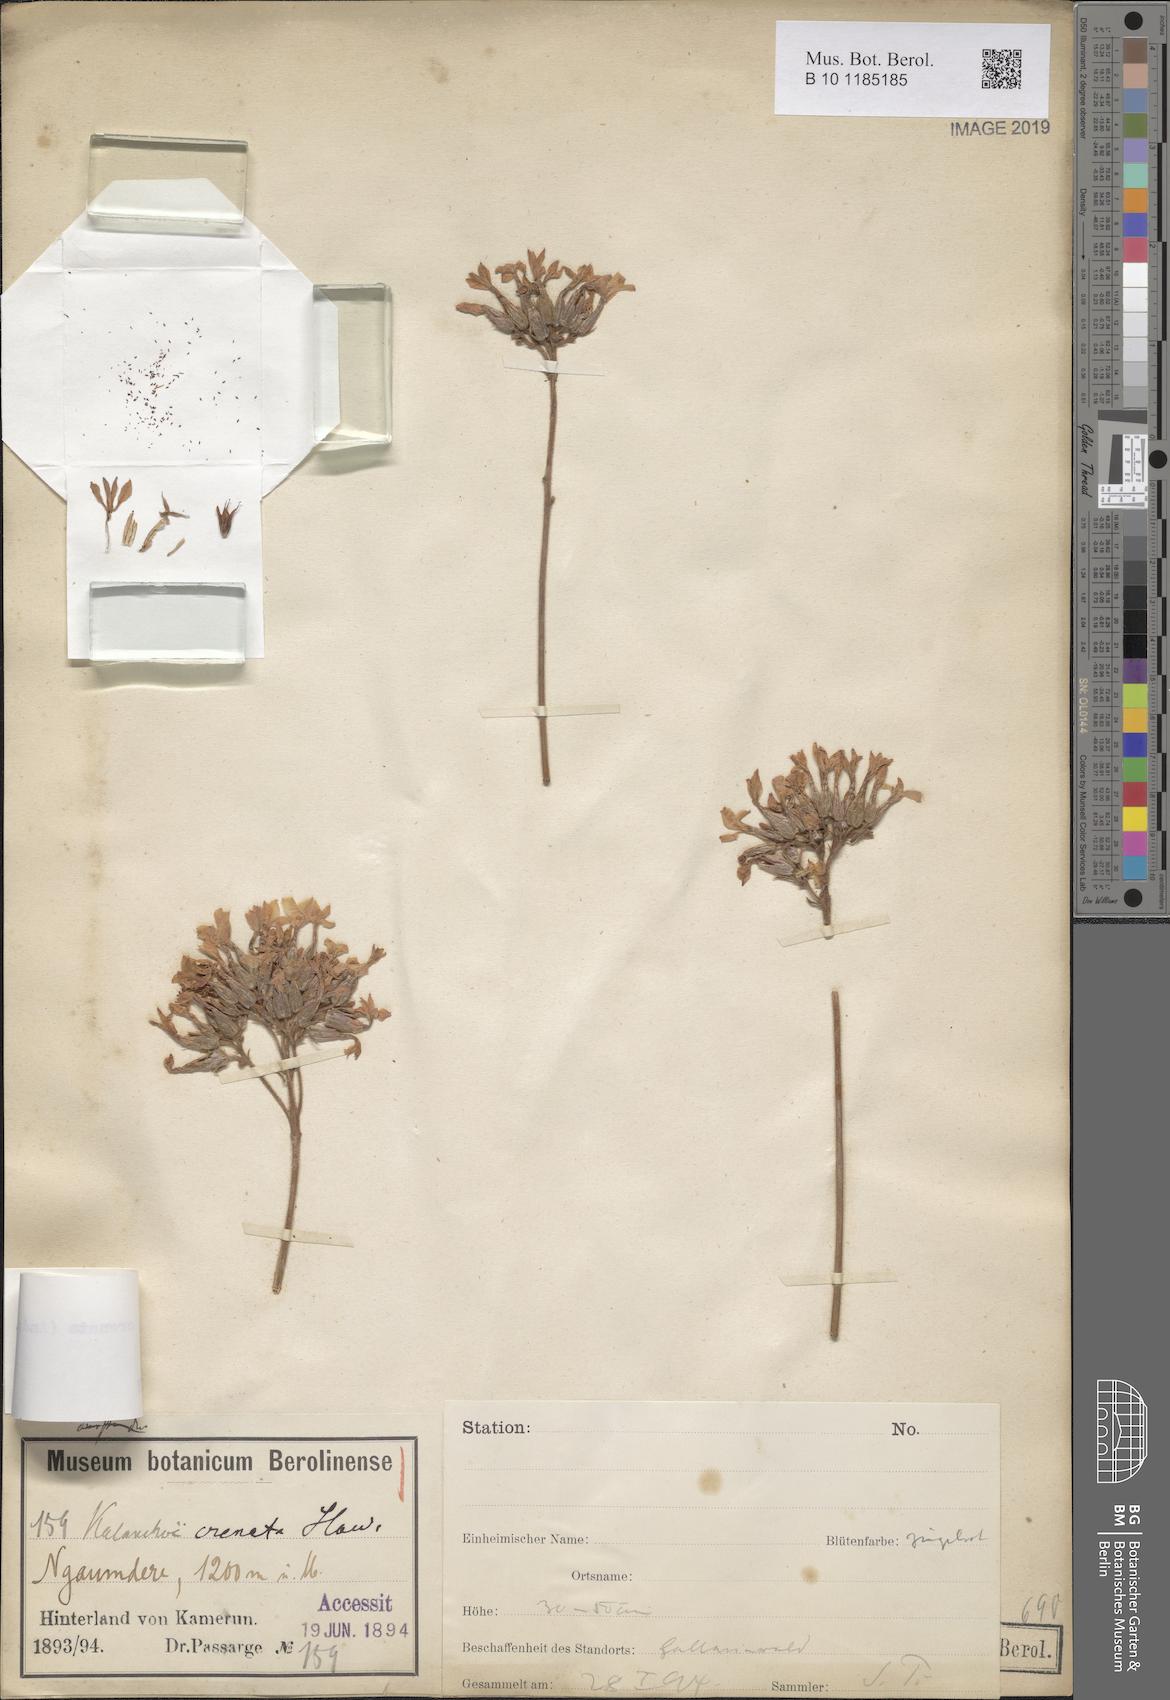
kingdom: Plantae
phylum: Tracheophyta
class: Magnoliopsida
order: Saxifragales
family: Crassulaceae
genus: Kalanchoe
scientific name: Kalanchoe crenata
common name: Neverdie
